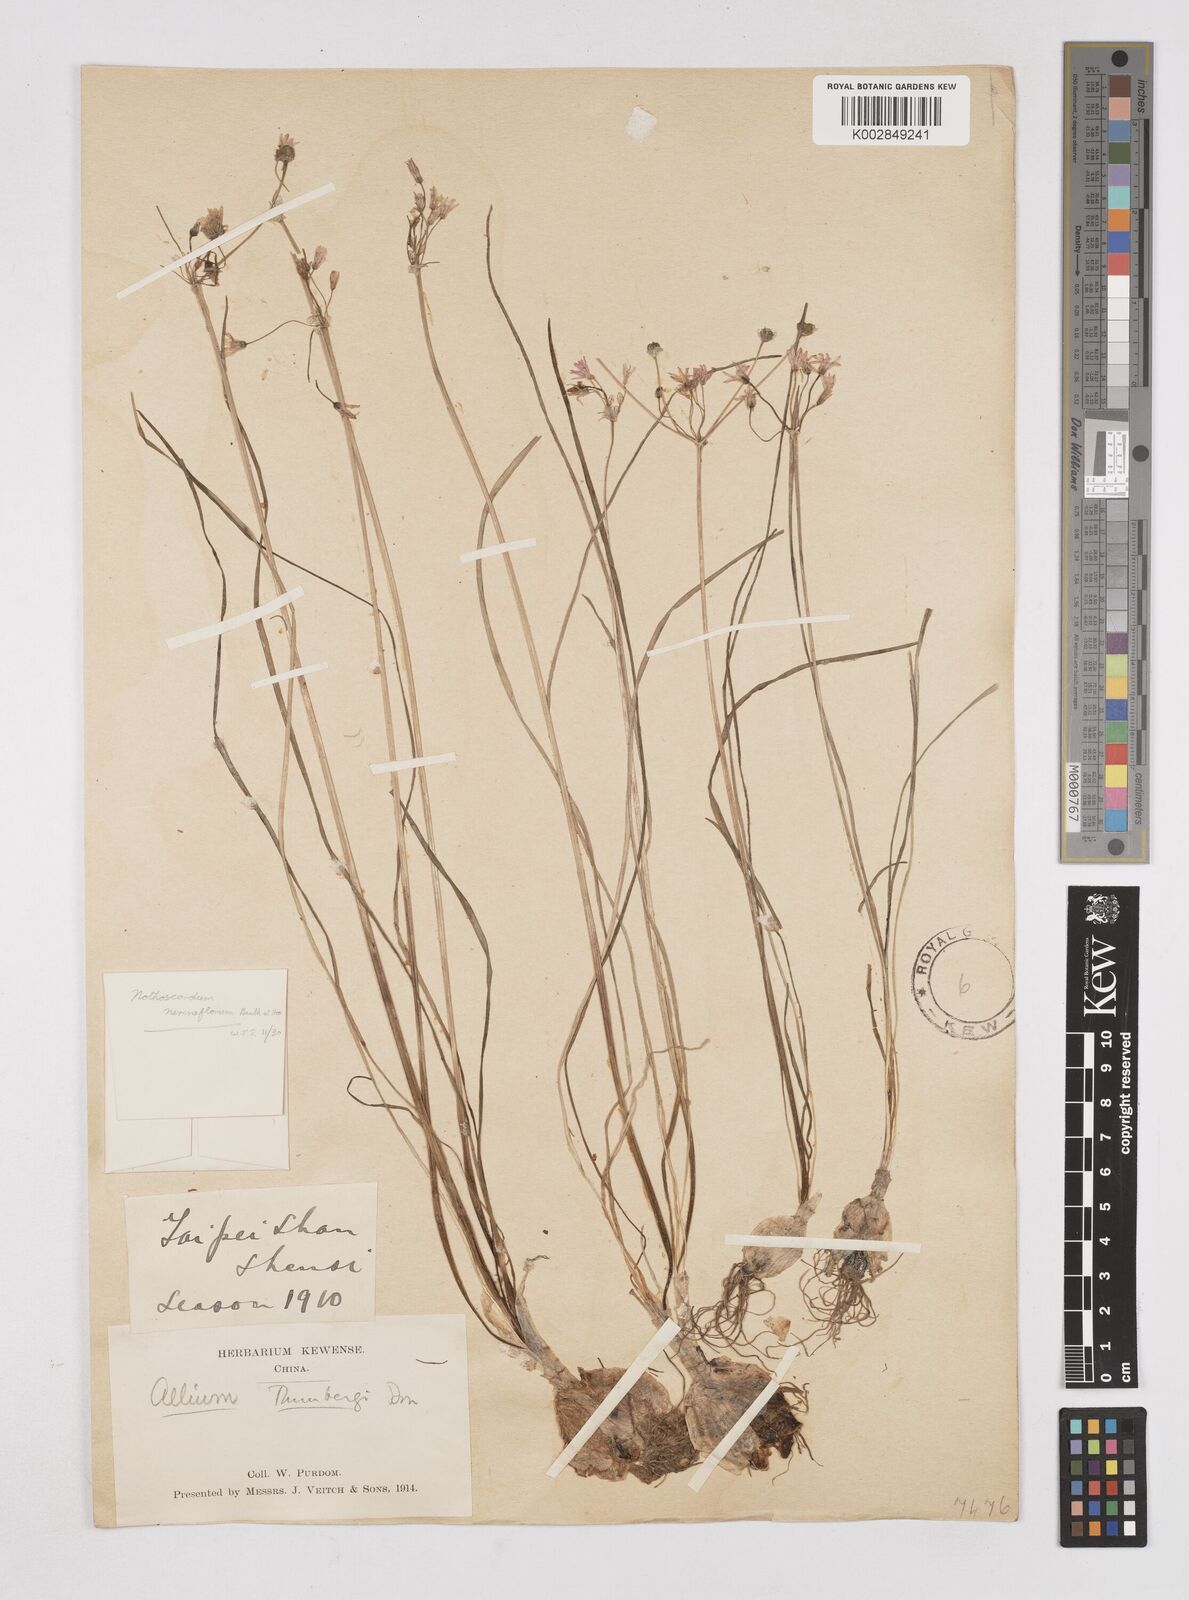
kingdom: Plantae
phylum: Tracheophyta
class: Liliopsida
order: Liliales
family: Liliaceae
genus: Agapanthus
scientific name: Agapanthus
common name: Agapanthus
